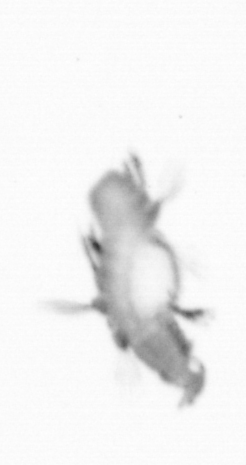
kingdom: Animalia
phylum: Annelida
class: Polychaeta
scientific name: Polychaeta
